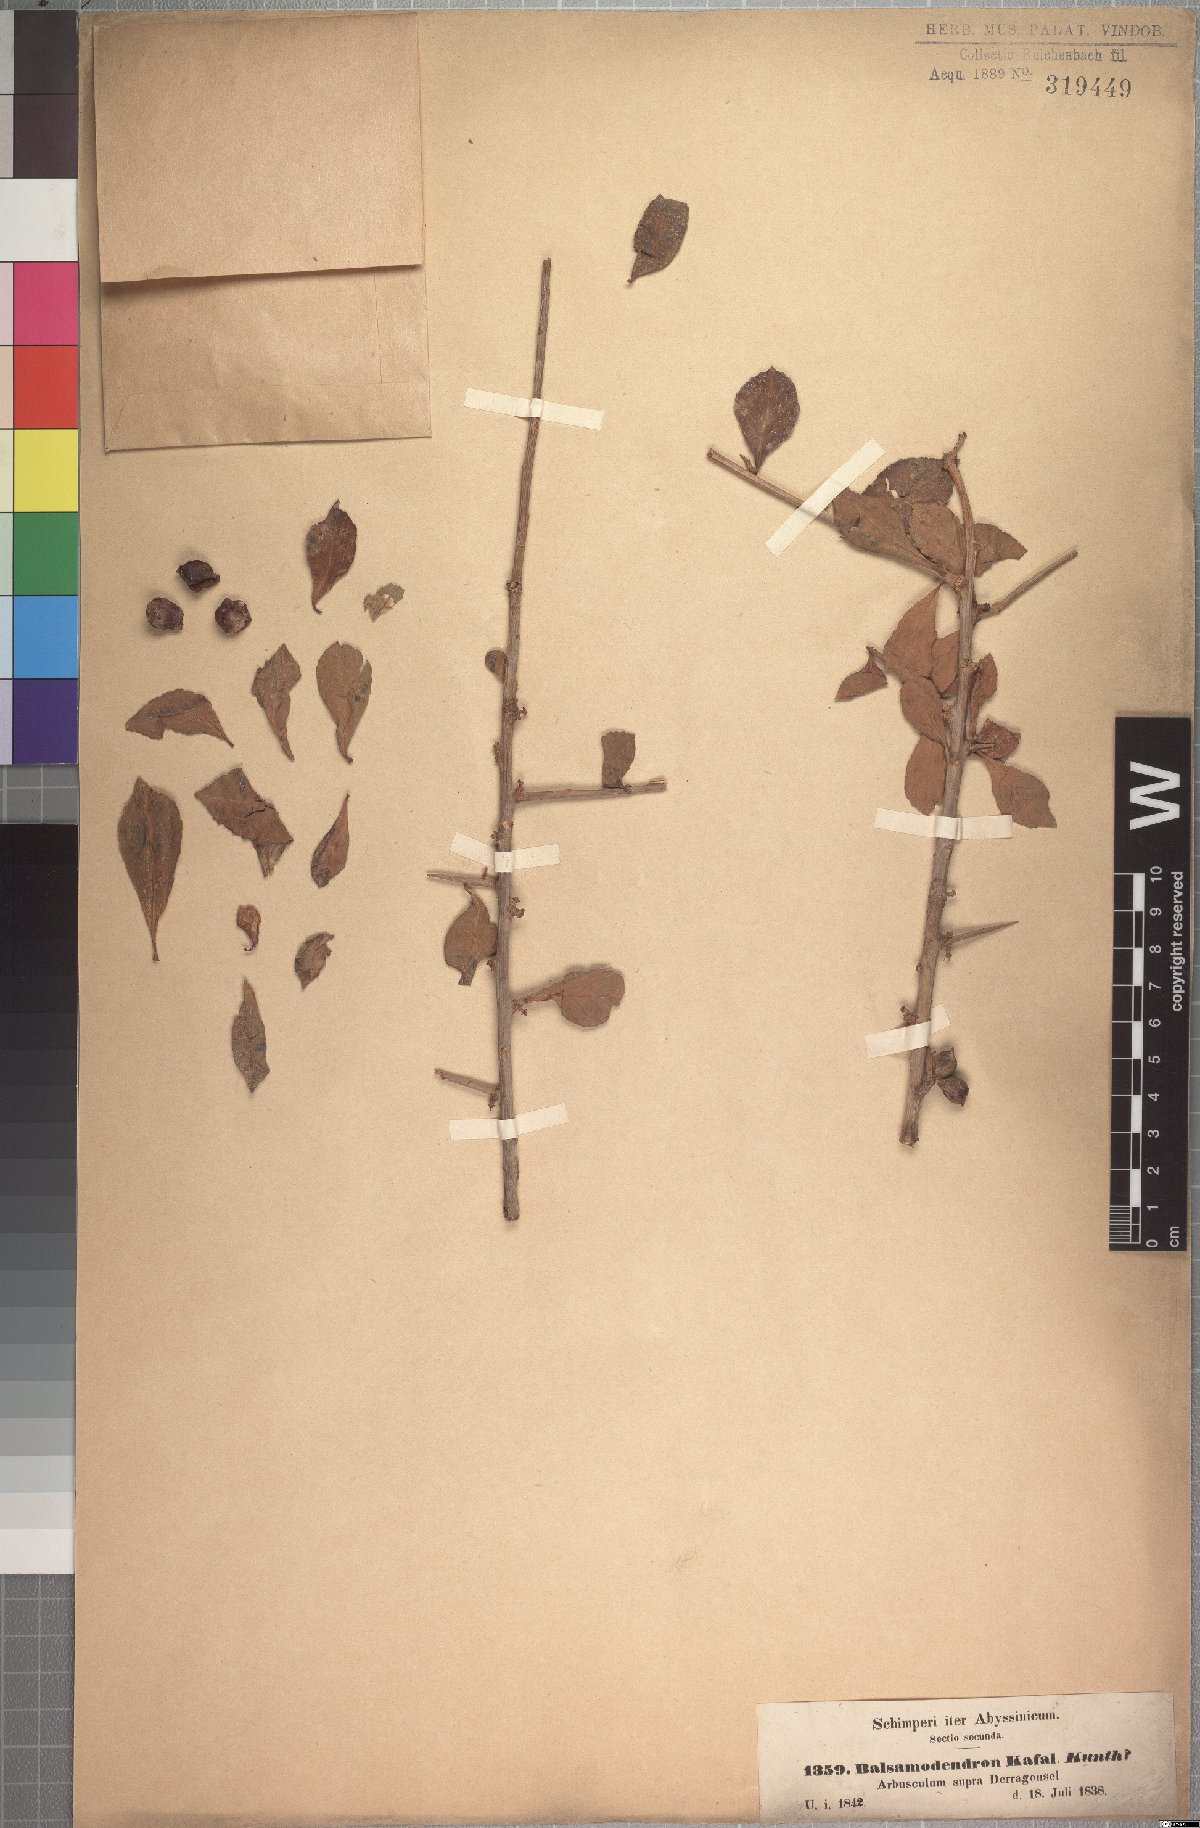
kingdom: Plantae
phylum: Tracheophyta
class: Magnoliopsida
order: Sapindales
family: Burseraceae
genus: Commiphora
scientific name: Commiphora kua
